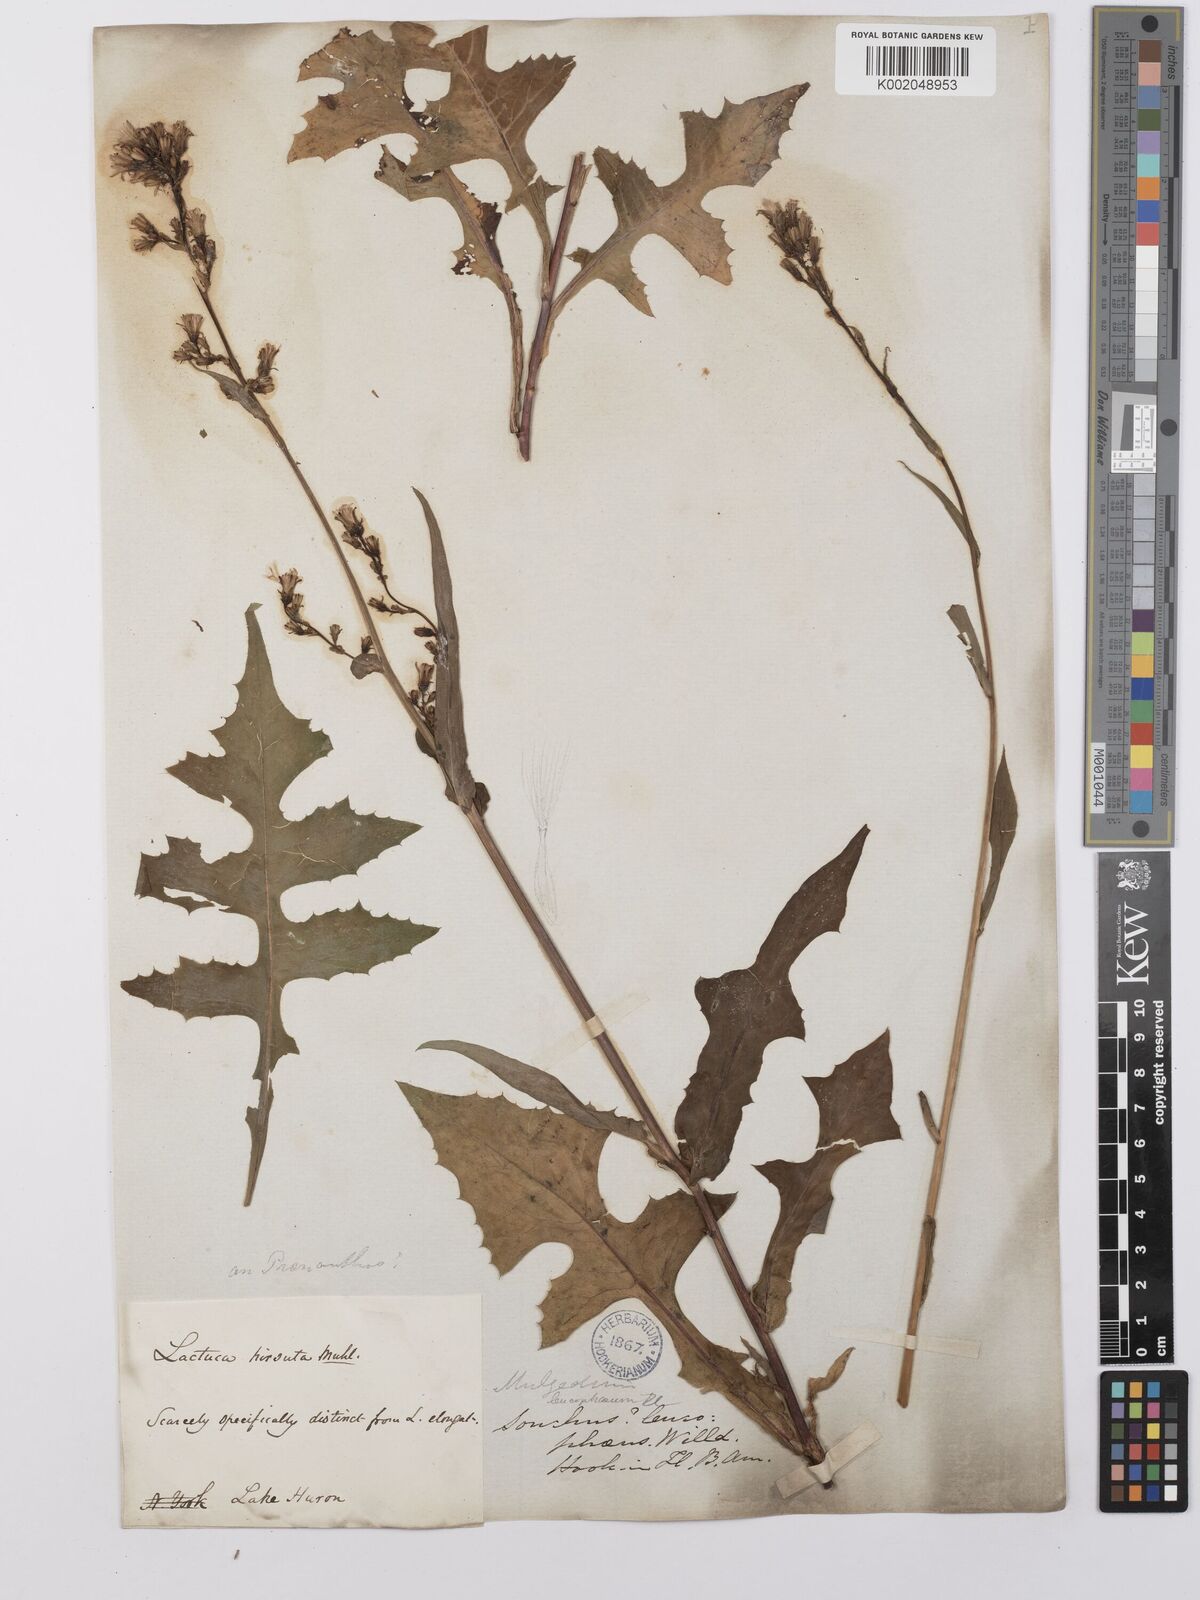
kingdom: Plantae
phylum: Tracheophyta
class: Magnoliopsida
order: Asterales
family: Asteraceae
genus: Lactuca
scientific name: Lactuca
